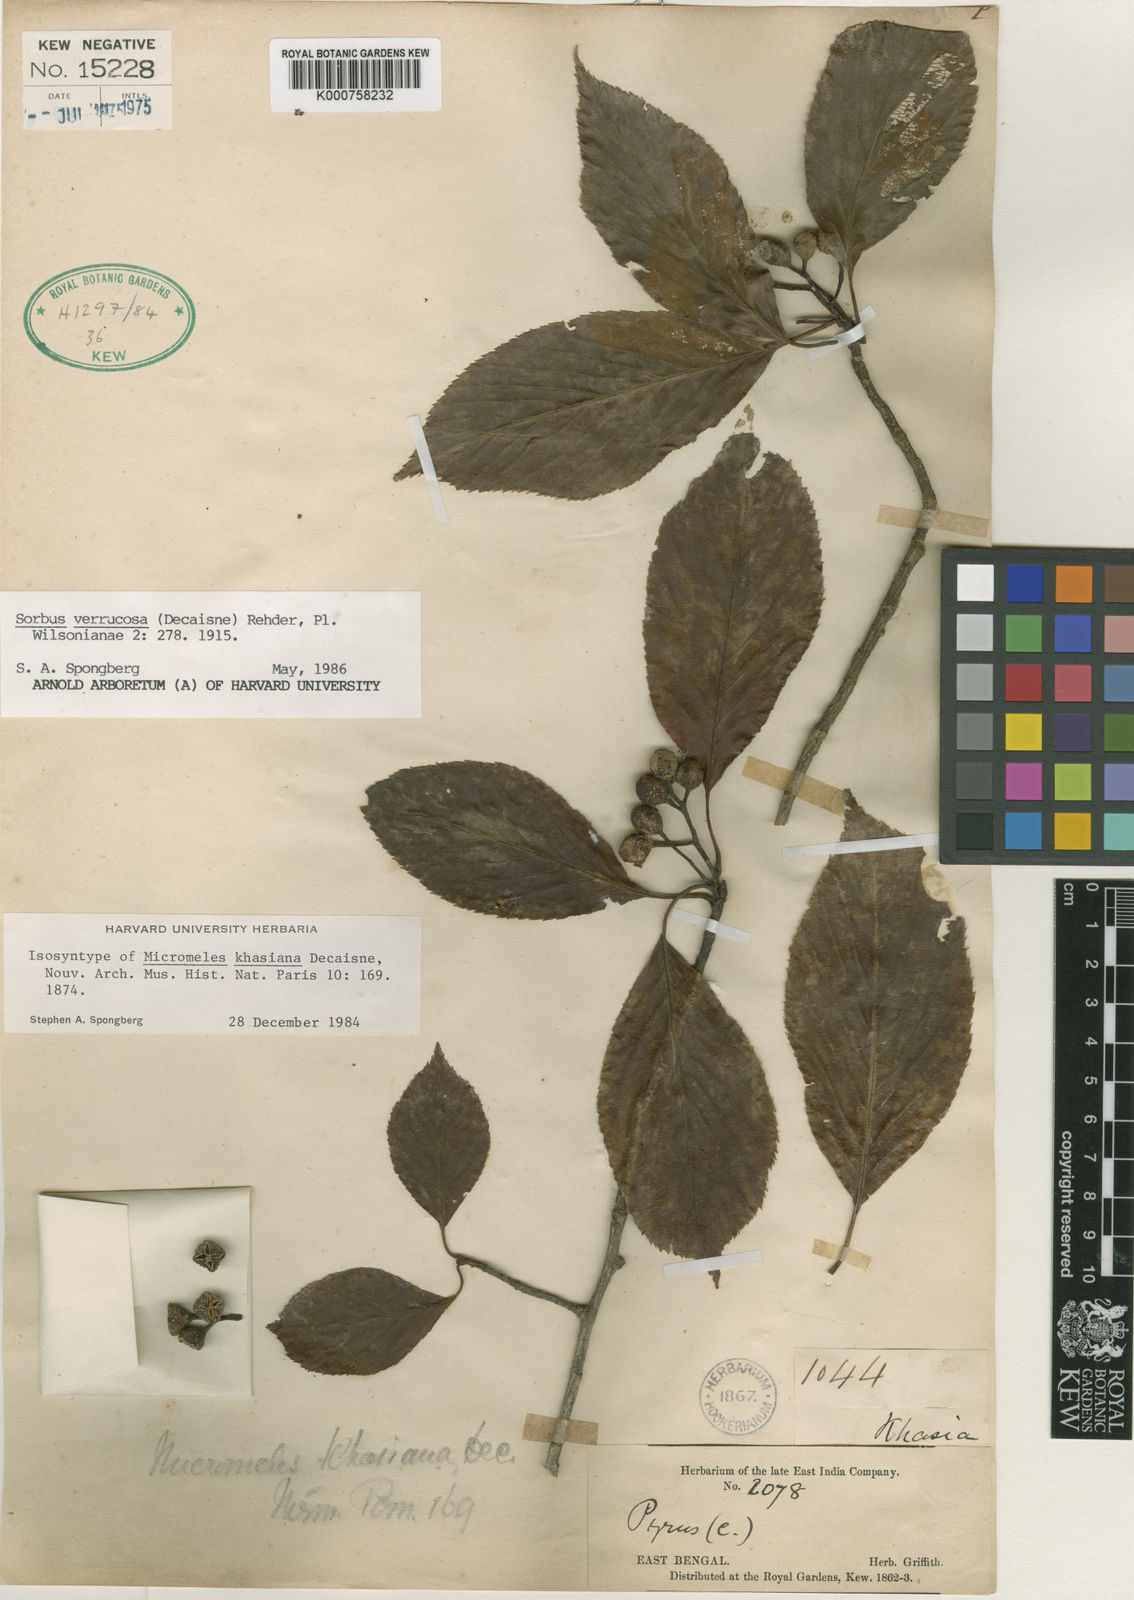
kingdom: Plantae
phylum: Tracheophyta
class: Magnoliopsida
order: Rosales
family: Rosaceae
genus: Micromeles
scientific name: Micromeles cuspidata
